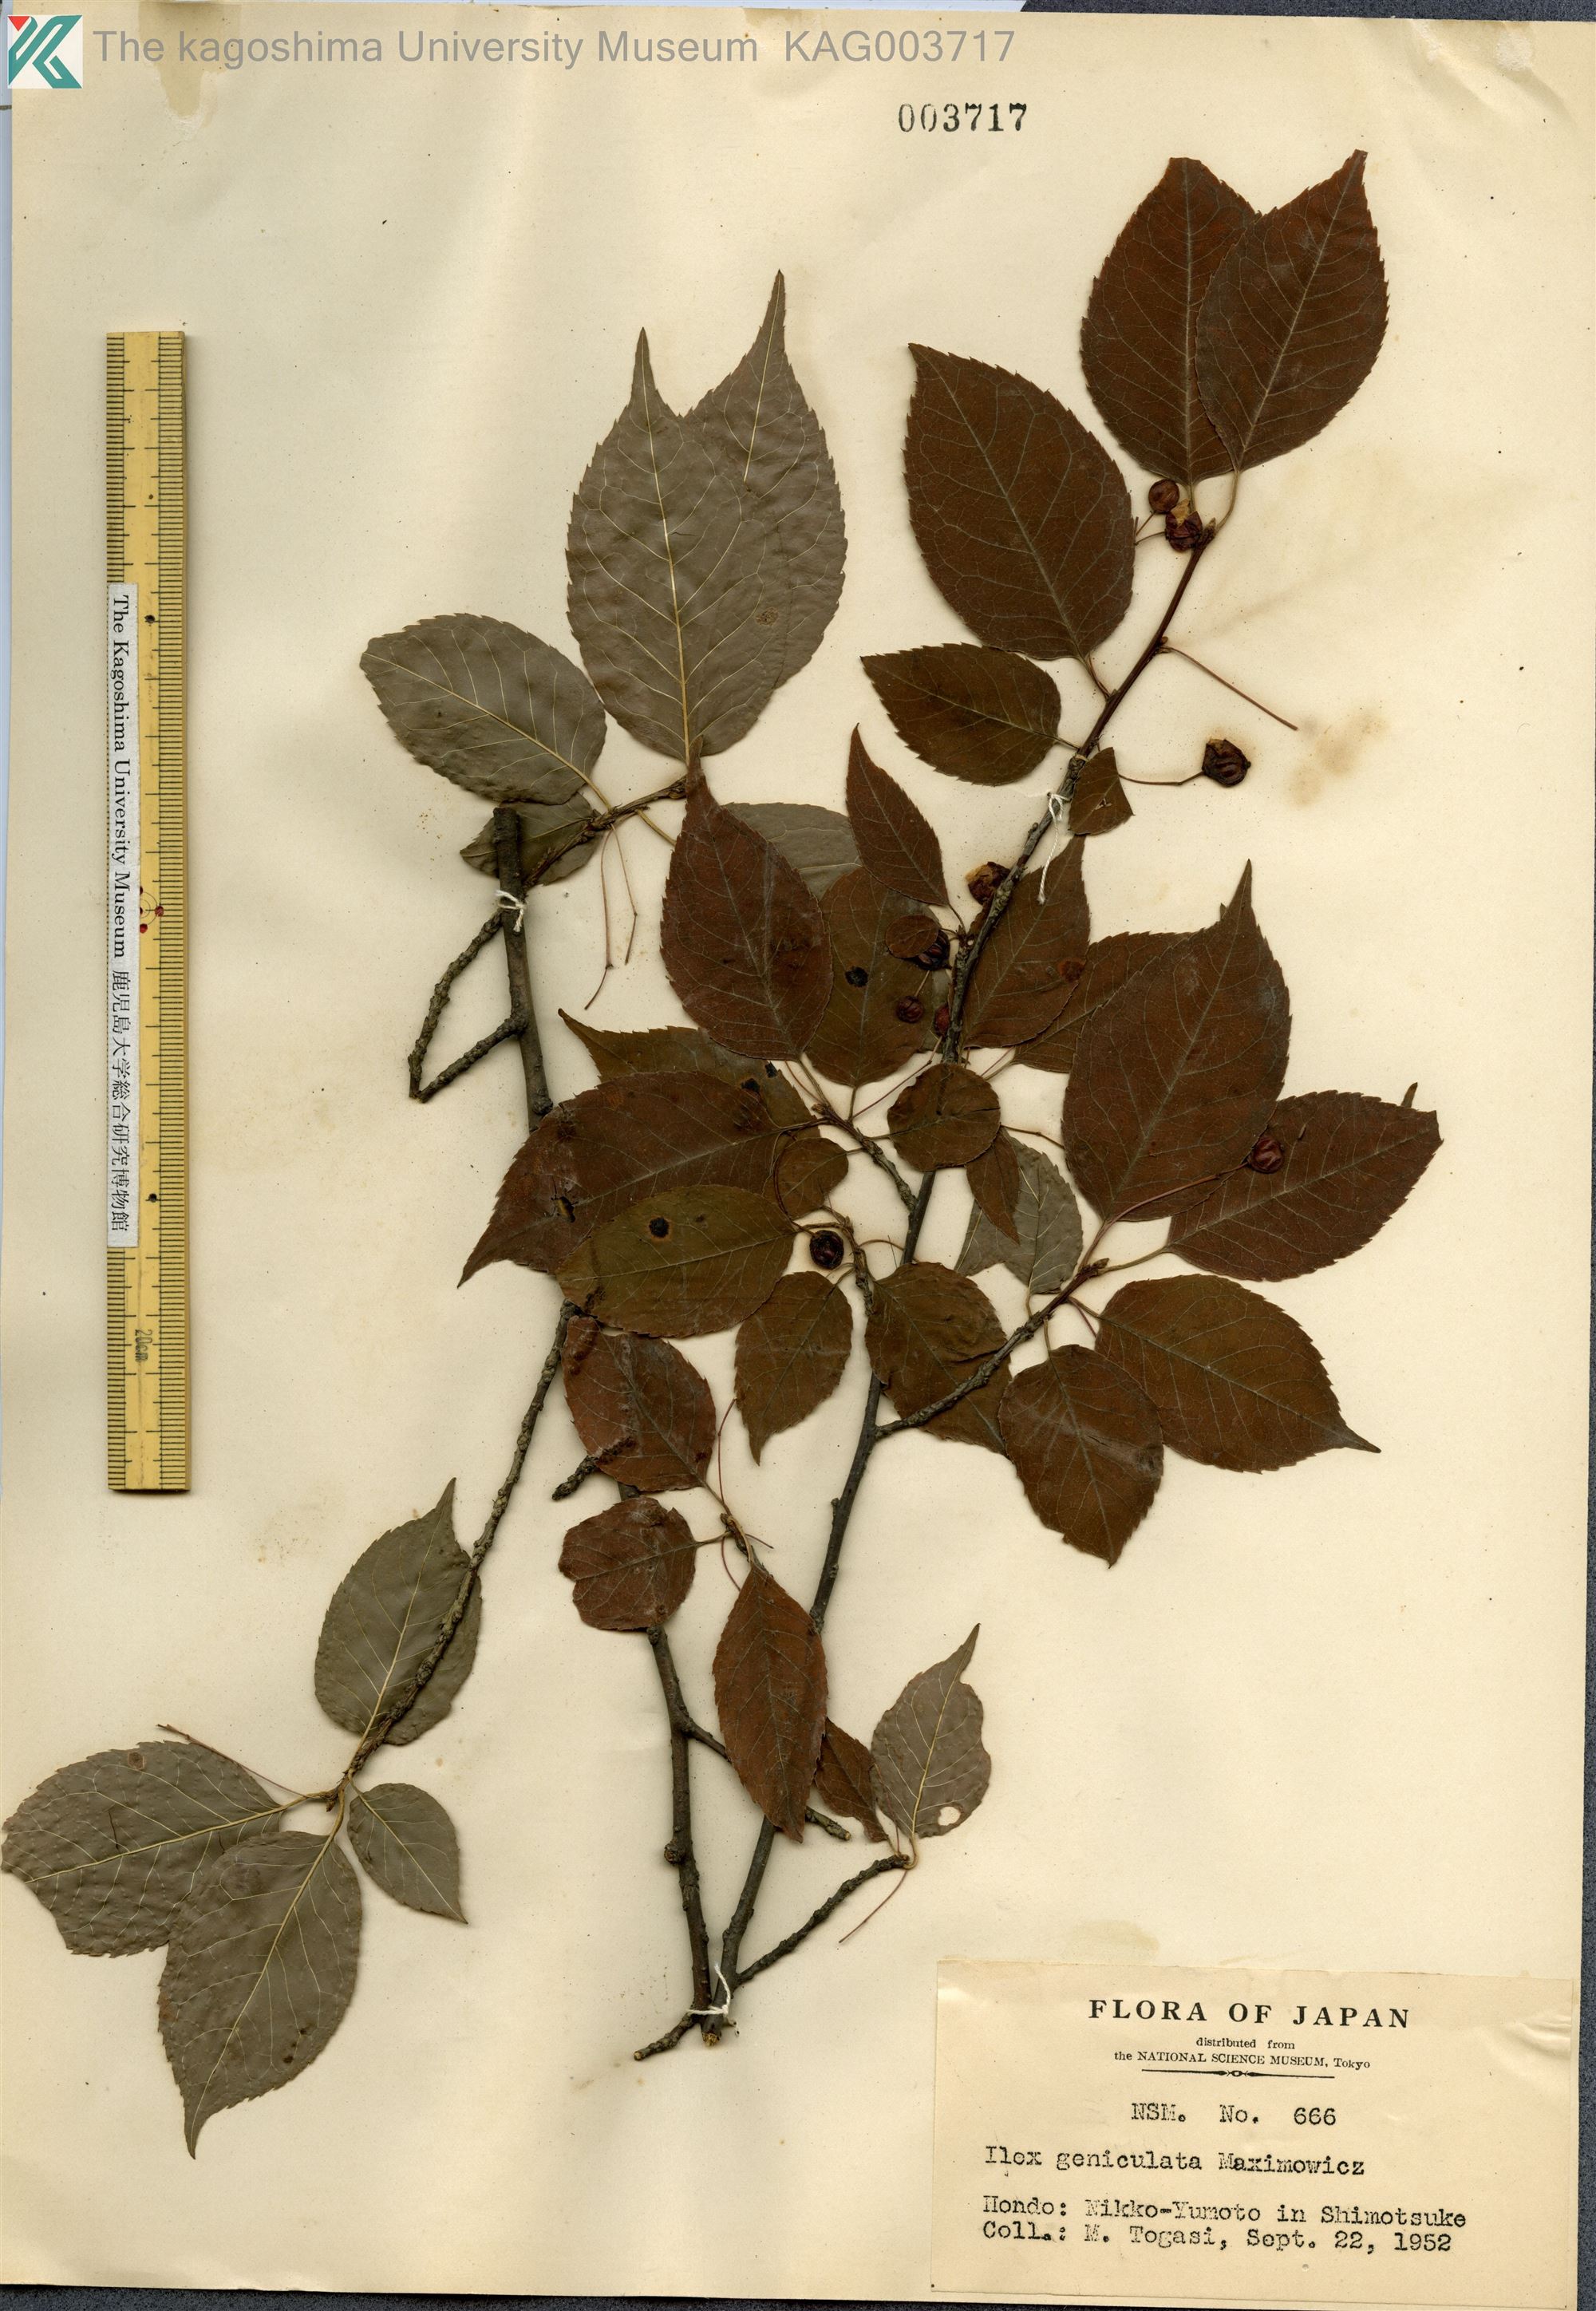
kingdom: Plantae
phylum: Tracheophyta
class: Magnoliopsida
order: Aquifoliales
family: Aquifoliaceae
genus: Ilex
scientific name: Ilex geniculata
